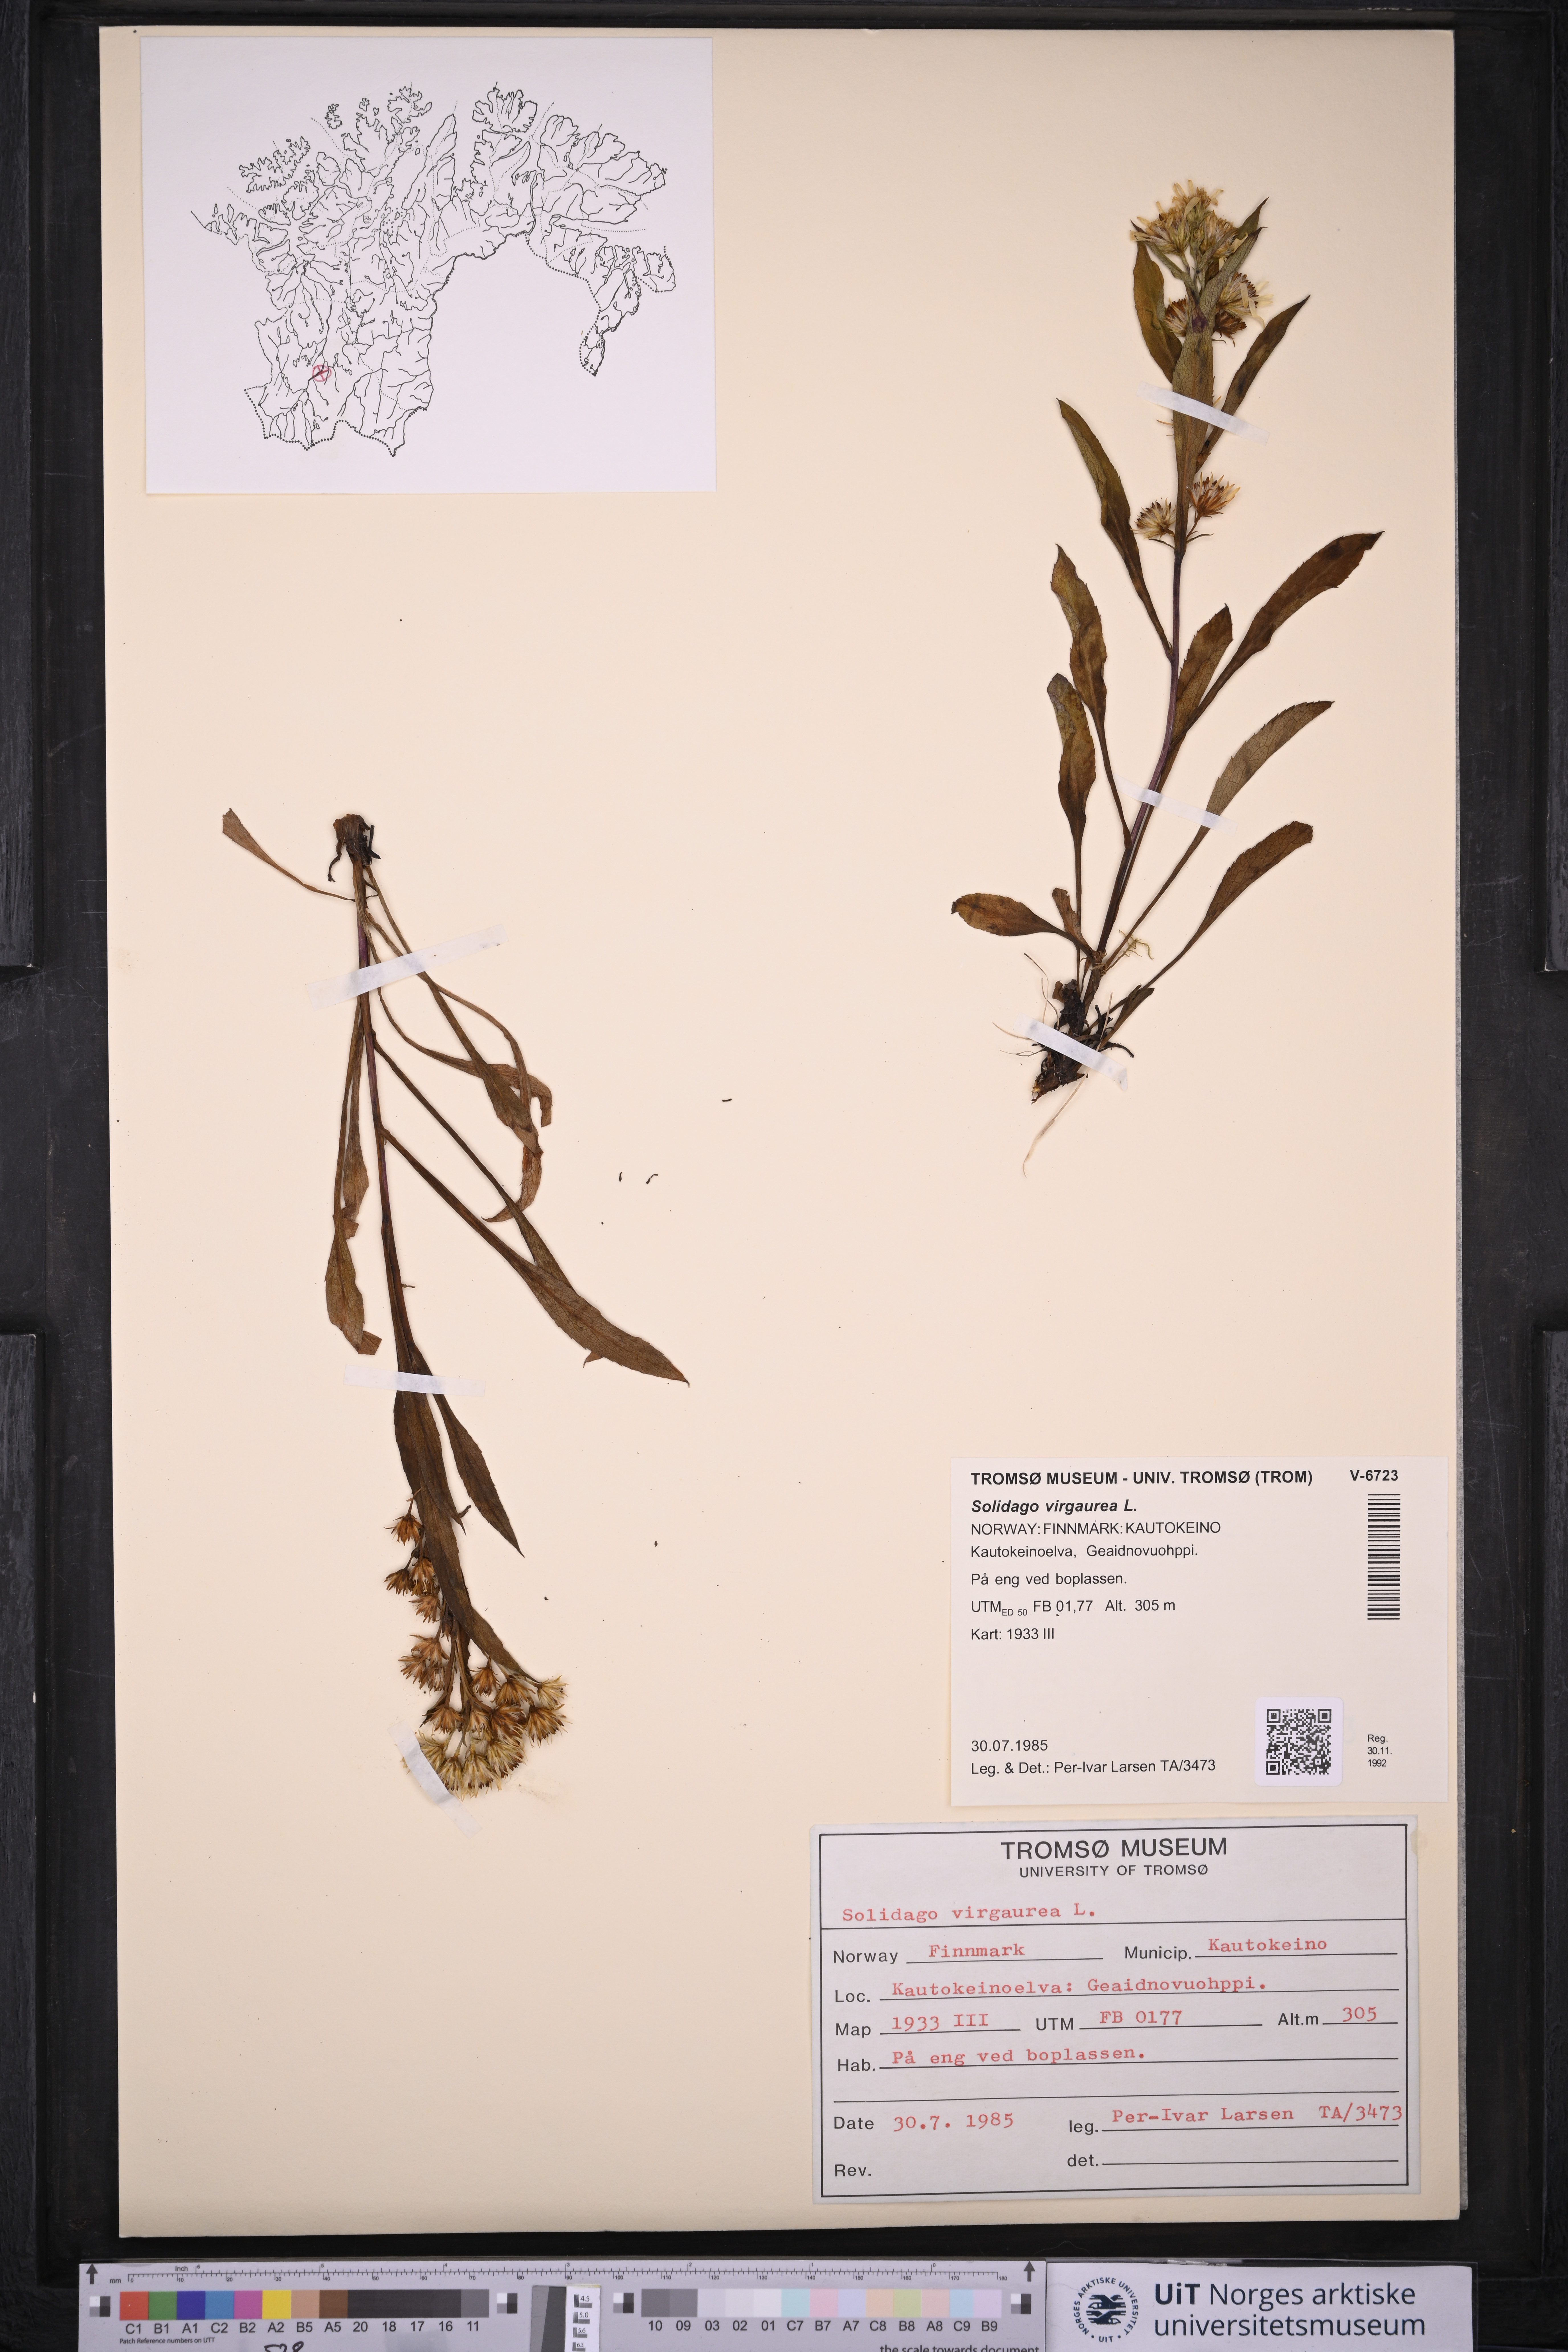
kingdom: Plantae
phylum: Tracheophyta
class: Magnoliopsida
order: Asterales
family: Asteraceae
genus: Solidago
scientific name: Solidago virgaurea
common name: Goldenrod
